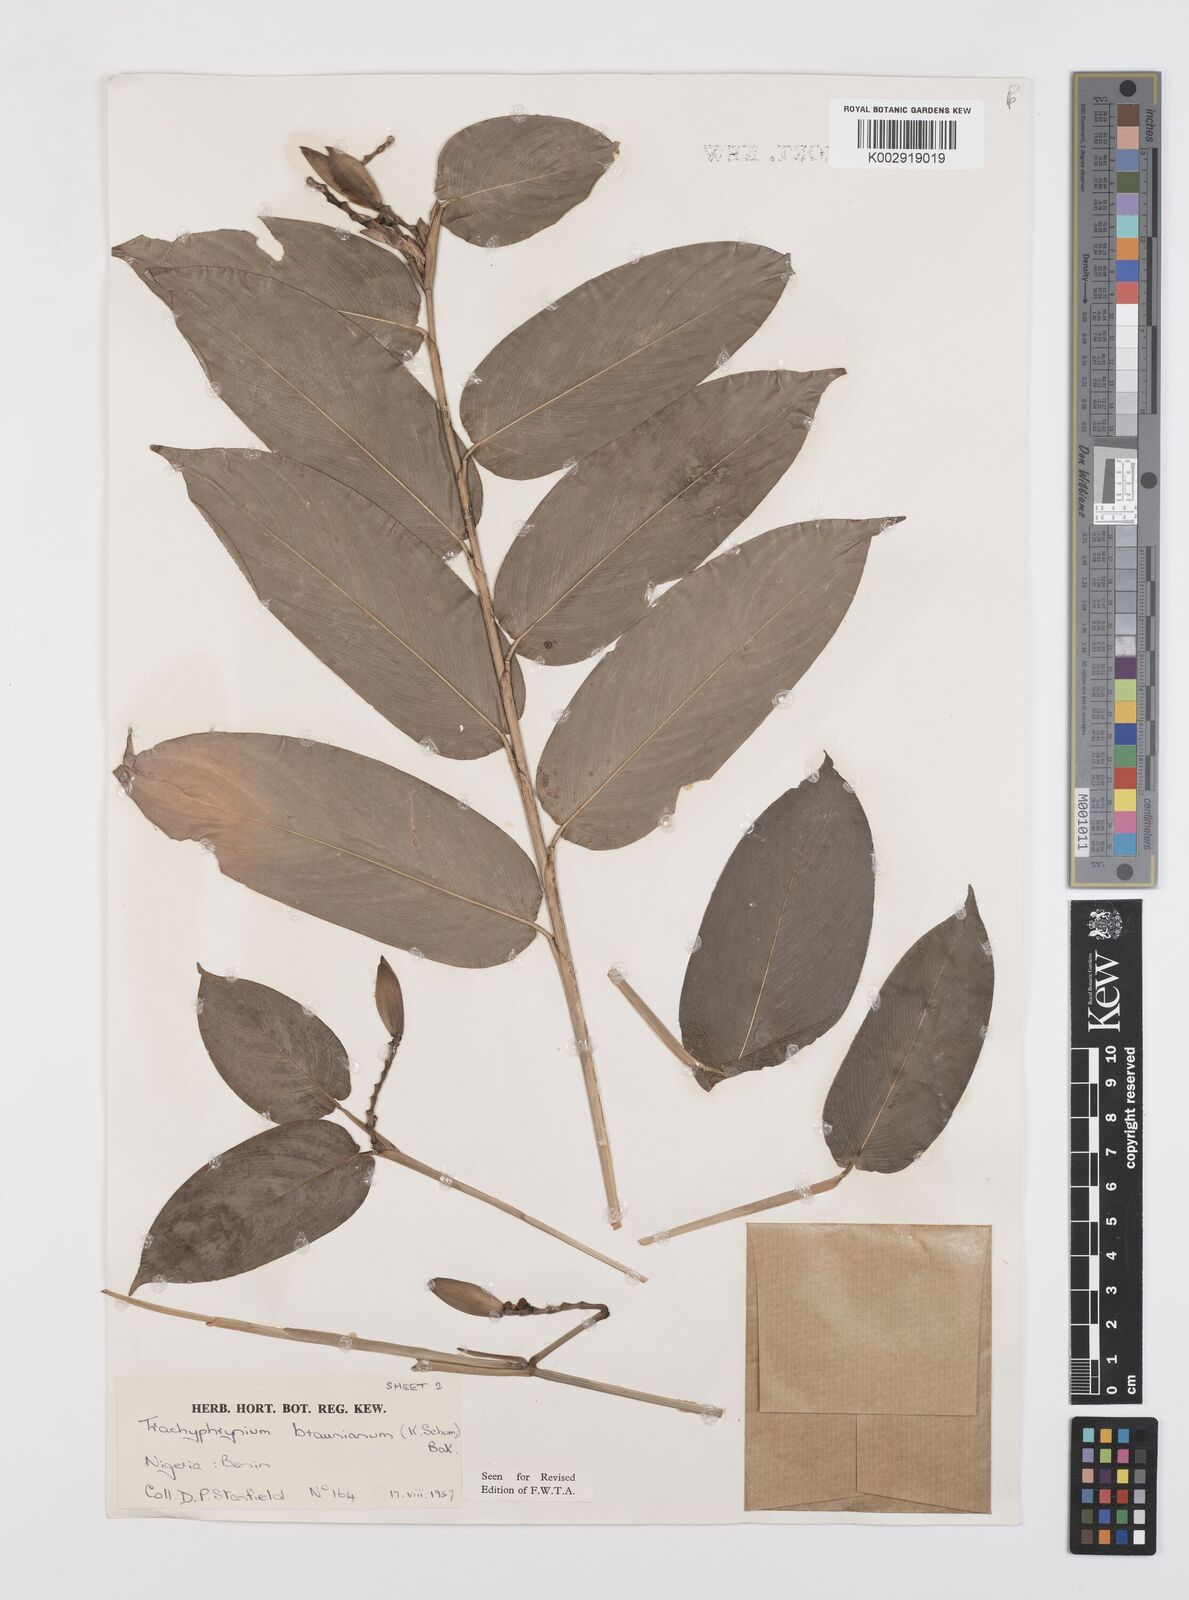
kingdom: Plantae
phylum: Tracheophyta
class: Liliopsida
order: Zingiberales
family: Marantaceae
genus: Trachyphrynium
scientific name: Trachyphrynium braunianum
